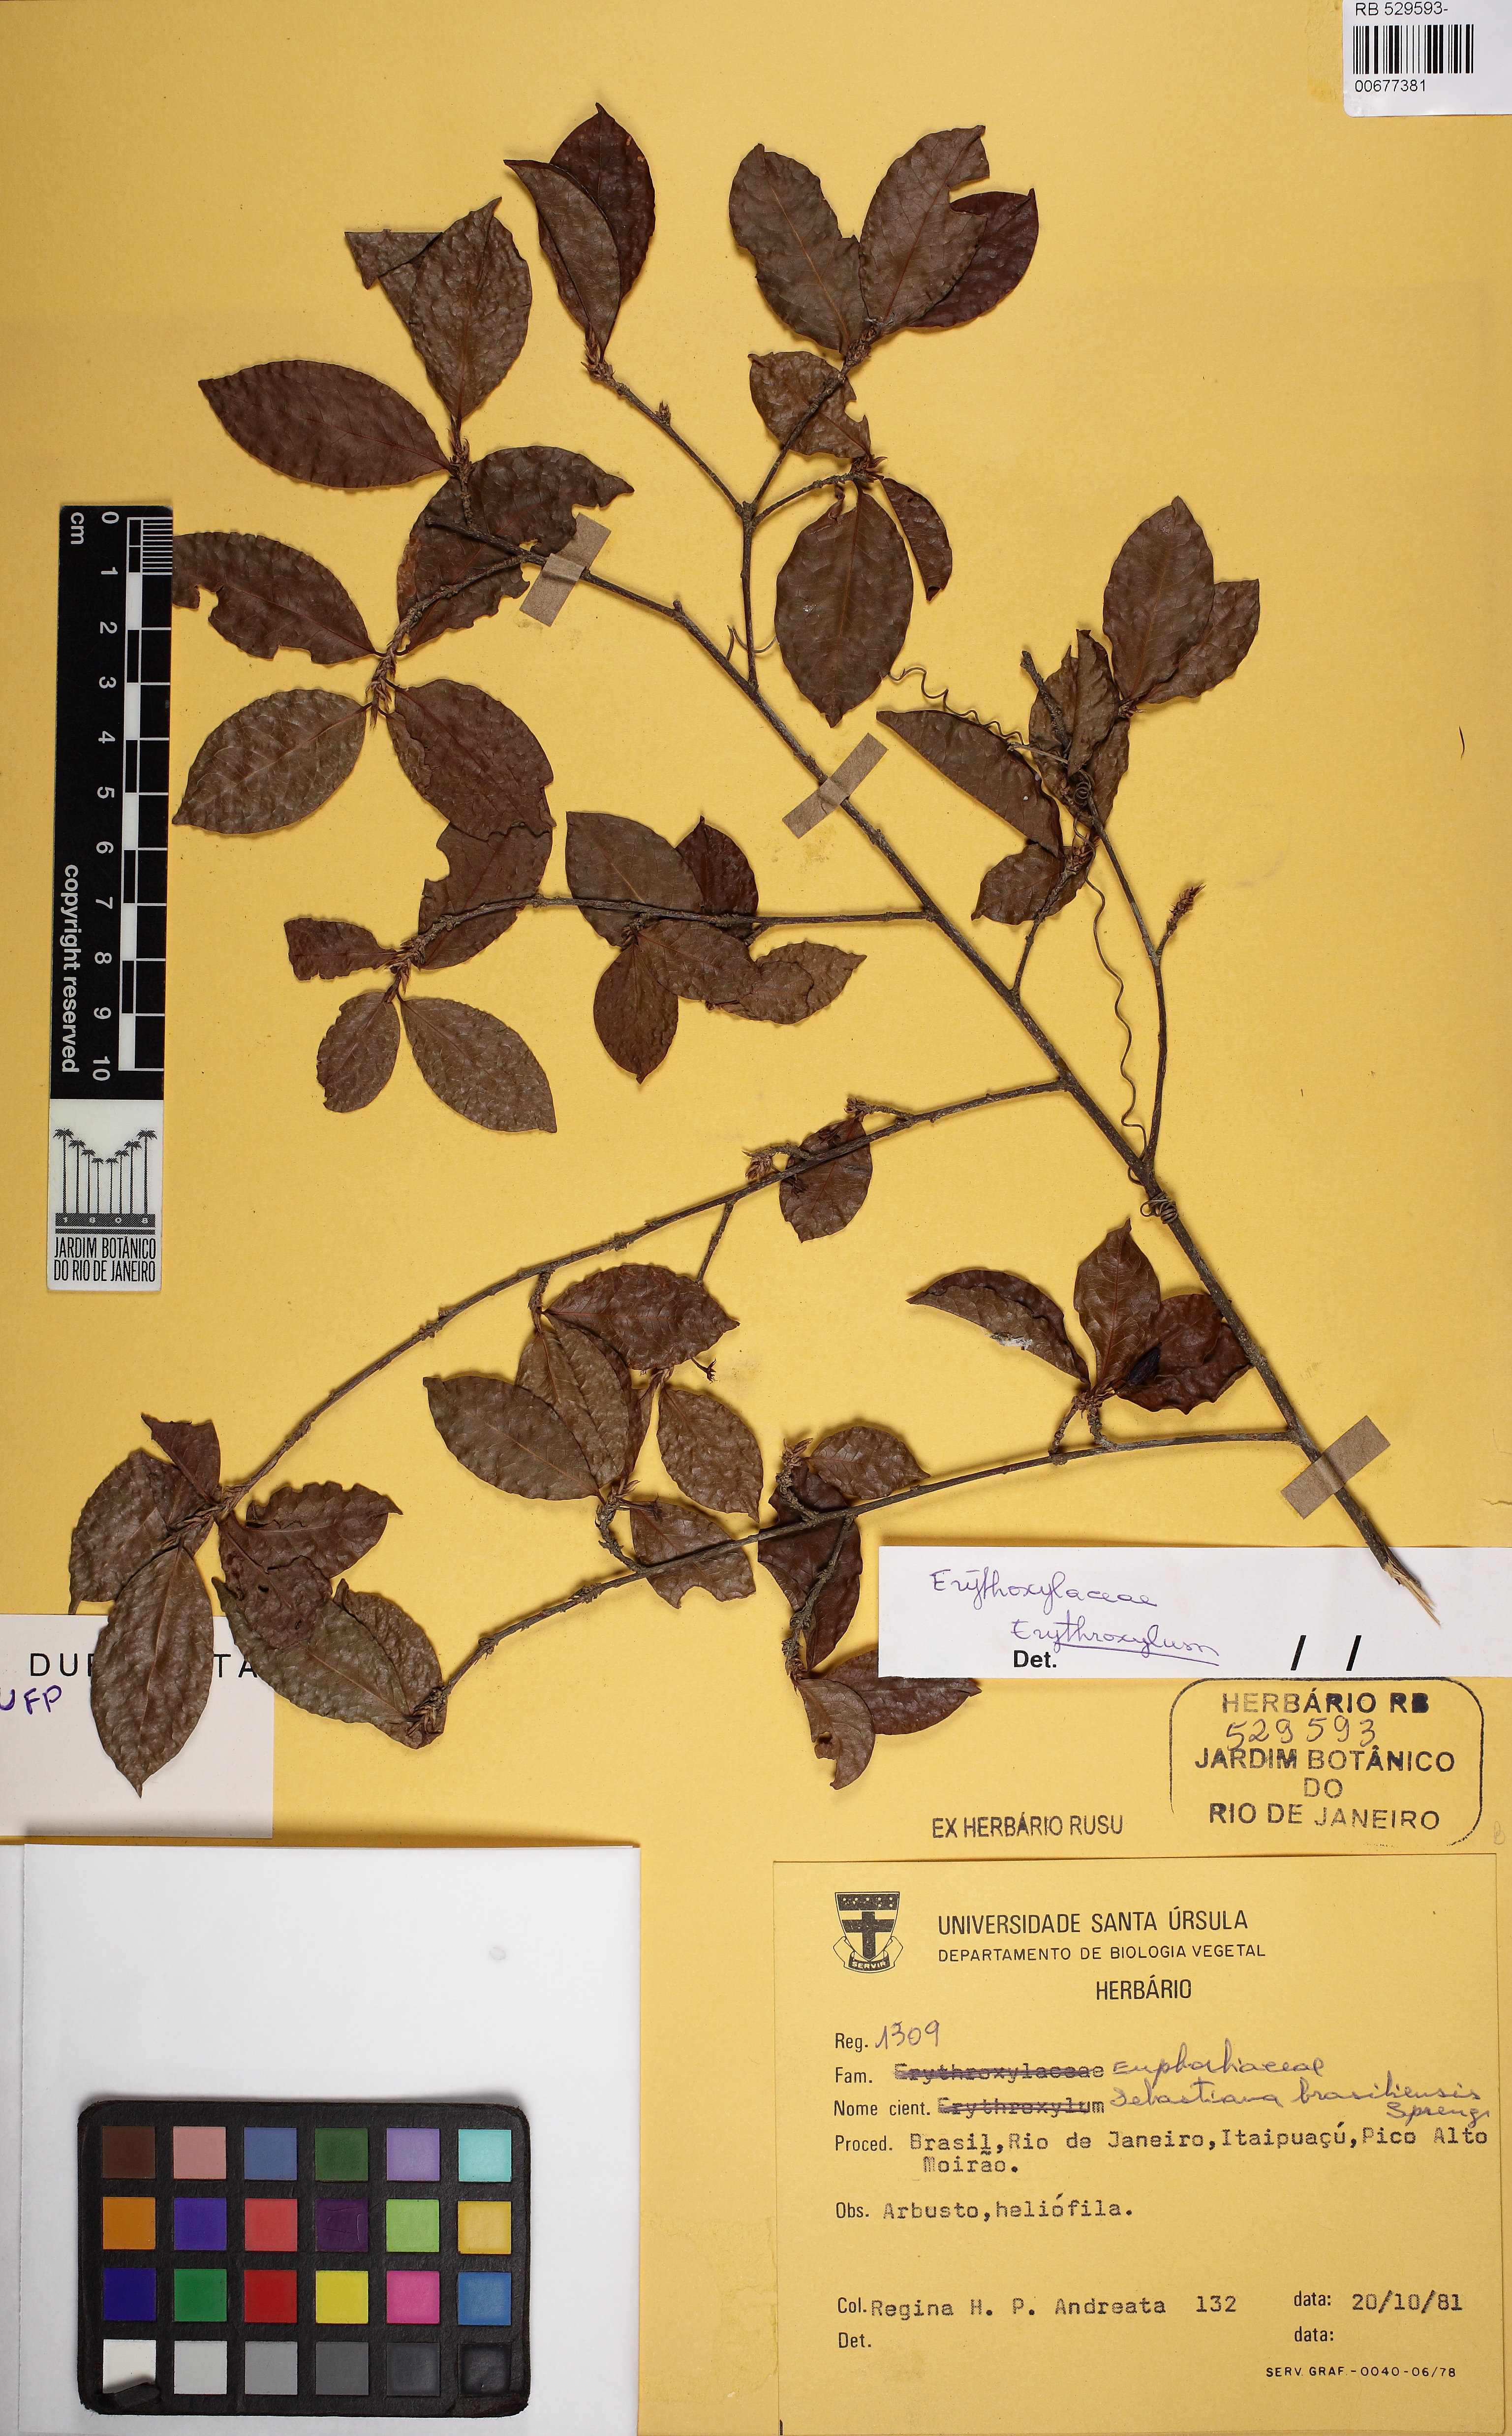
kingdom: Plantae
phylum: Tracheophyta
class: Magnoliopsida
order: Malpighiales
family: Erythroxylaceae
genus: Erythroxylum
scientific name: Erythroxylum
